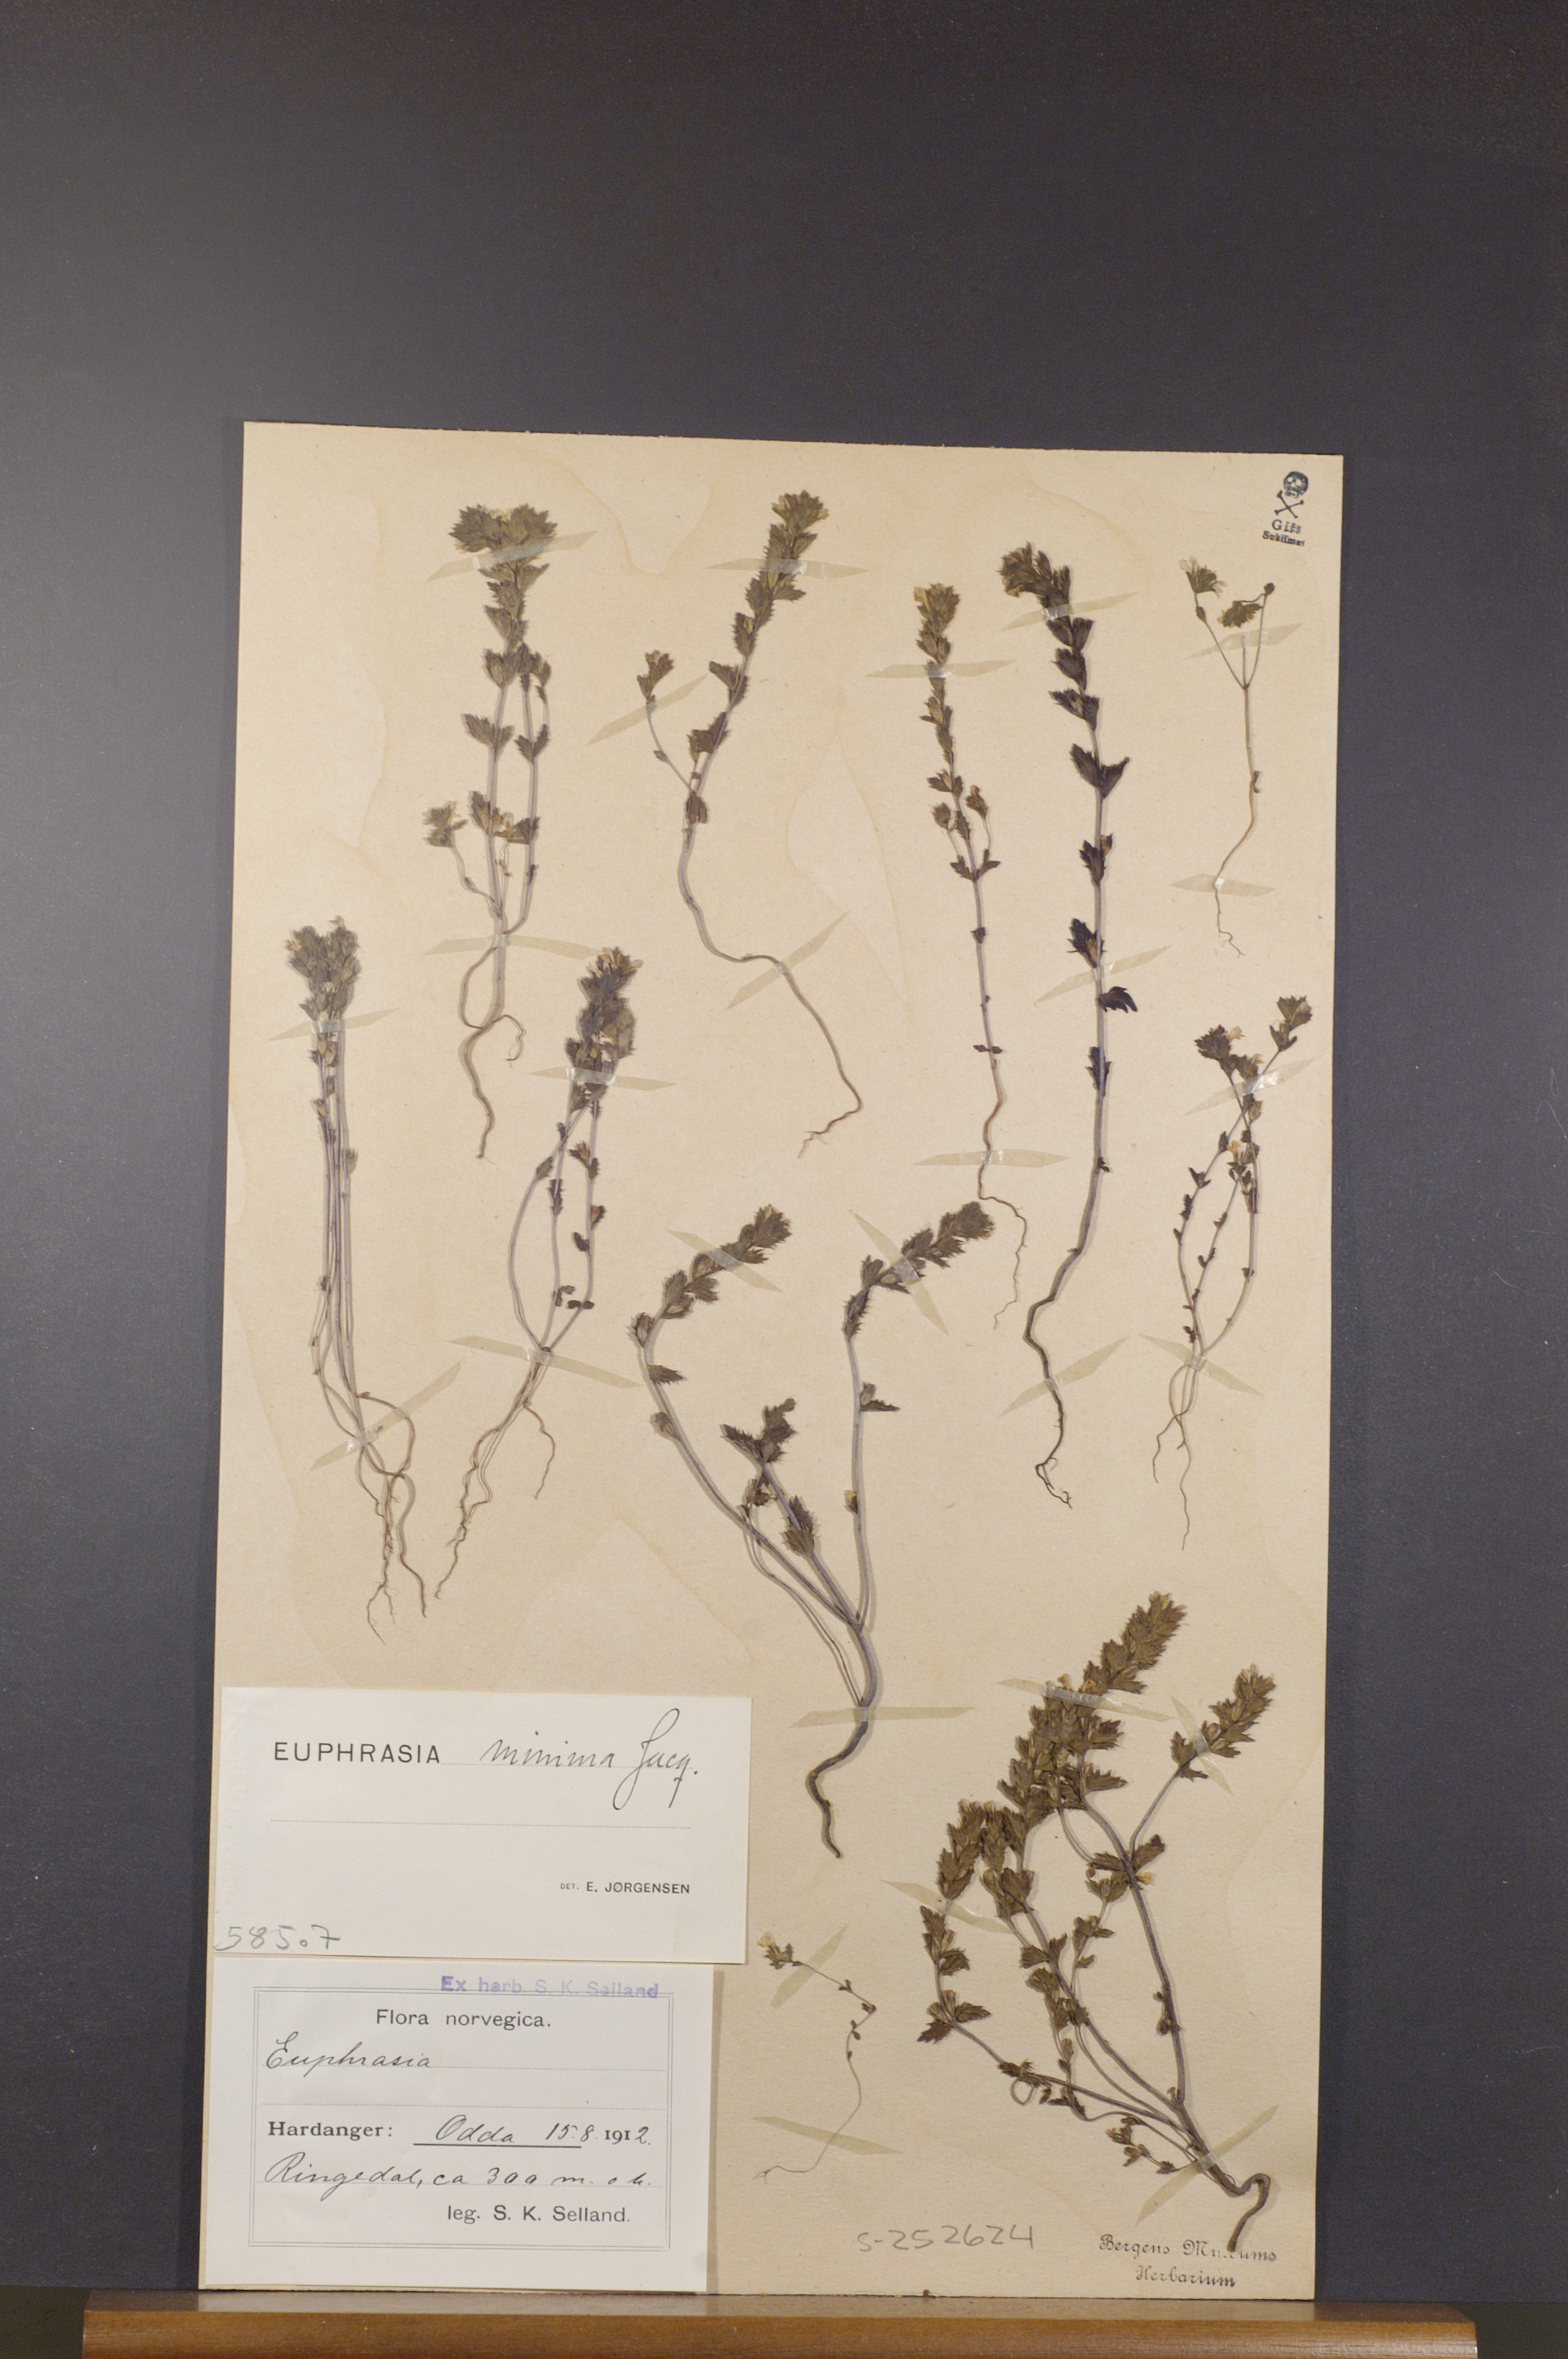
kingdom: Plantae
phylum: Tracheophyta
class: Magnoliopsida
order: Lamiales
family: Orobanchaceae
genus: Euphrasia
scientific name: Euphrasia minima
